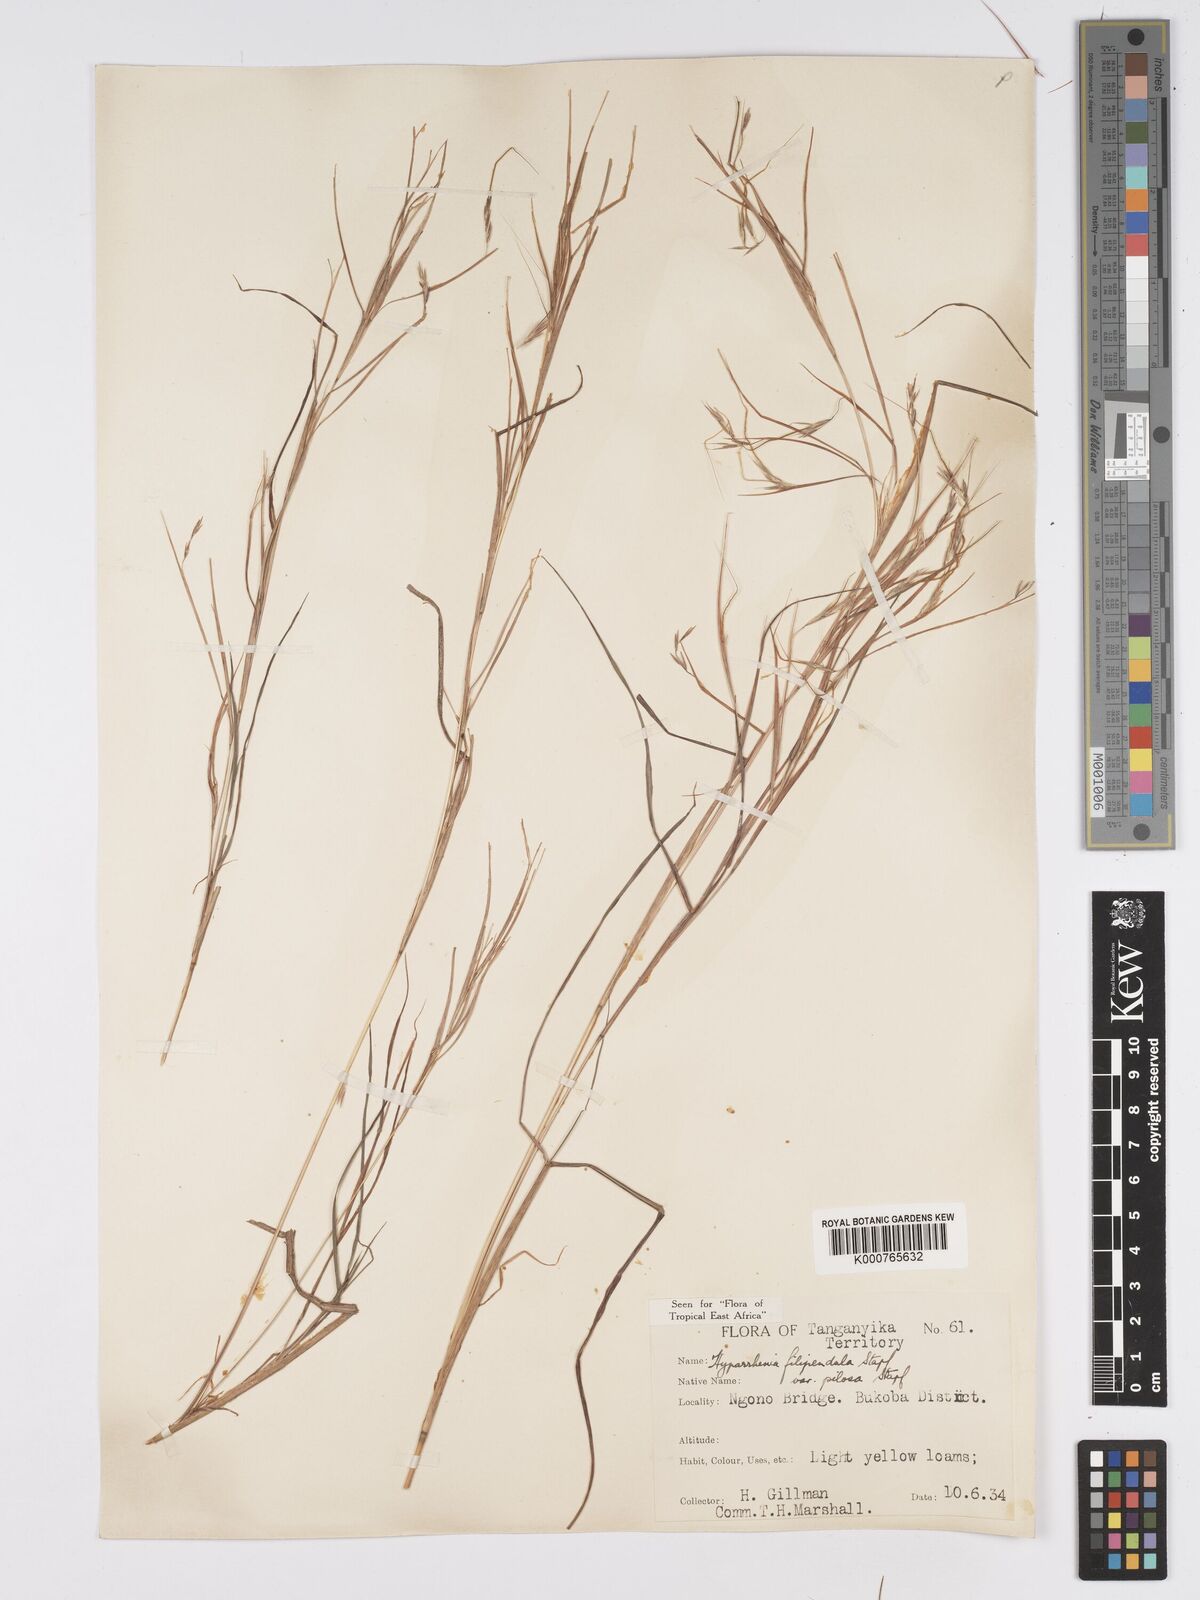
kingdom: Plantae
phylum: Tracheophyta
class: Liliopsida
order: Poales
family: Poaceae
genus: Hyparrhenia
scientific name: Hyparrhenia filipendula
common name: Tambookie grass
